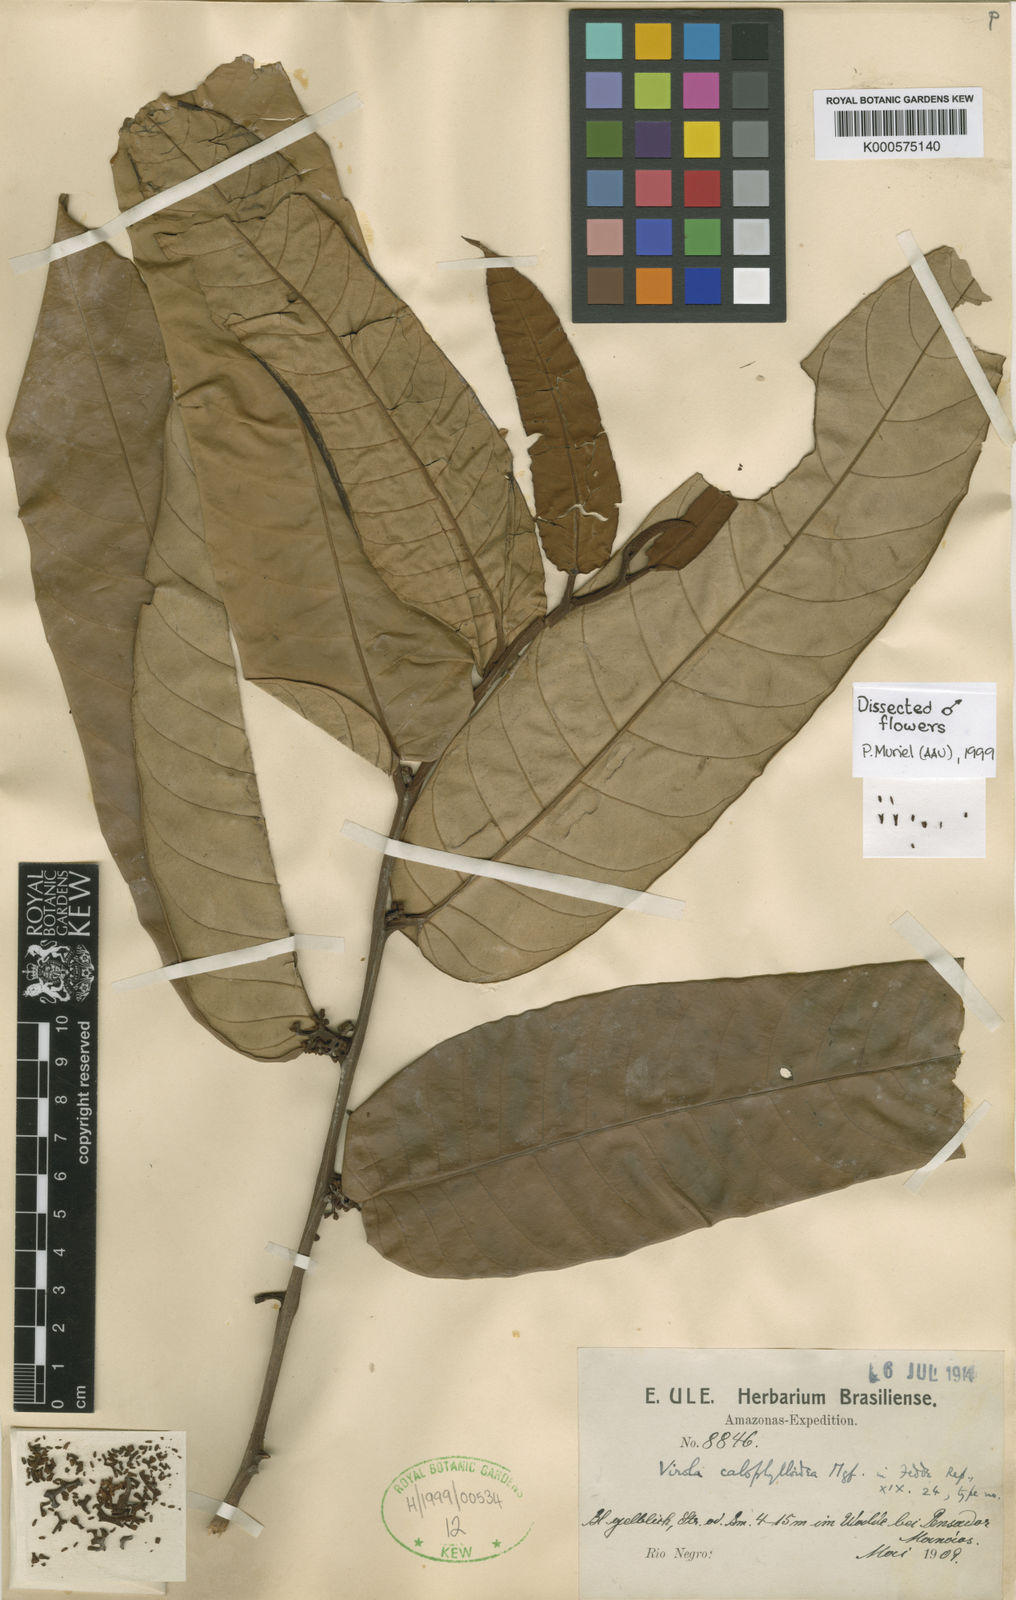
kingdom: Plantae
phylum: Tracheophyta
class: Magnoliopsida
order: Magnoliales
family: Myristicaceae
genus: Virola
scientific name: Virola calophylla
